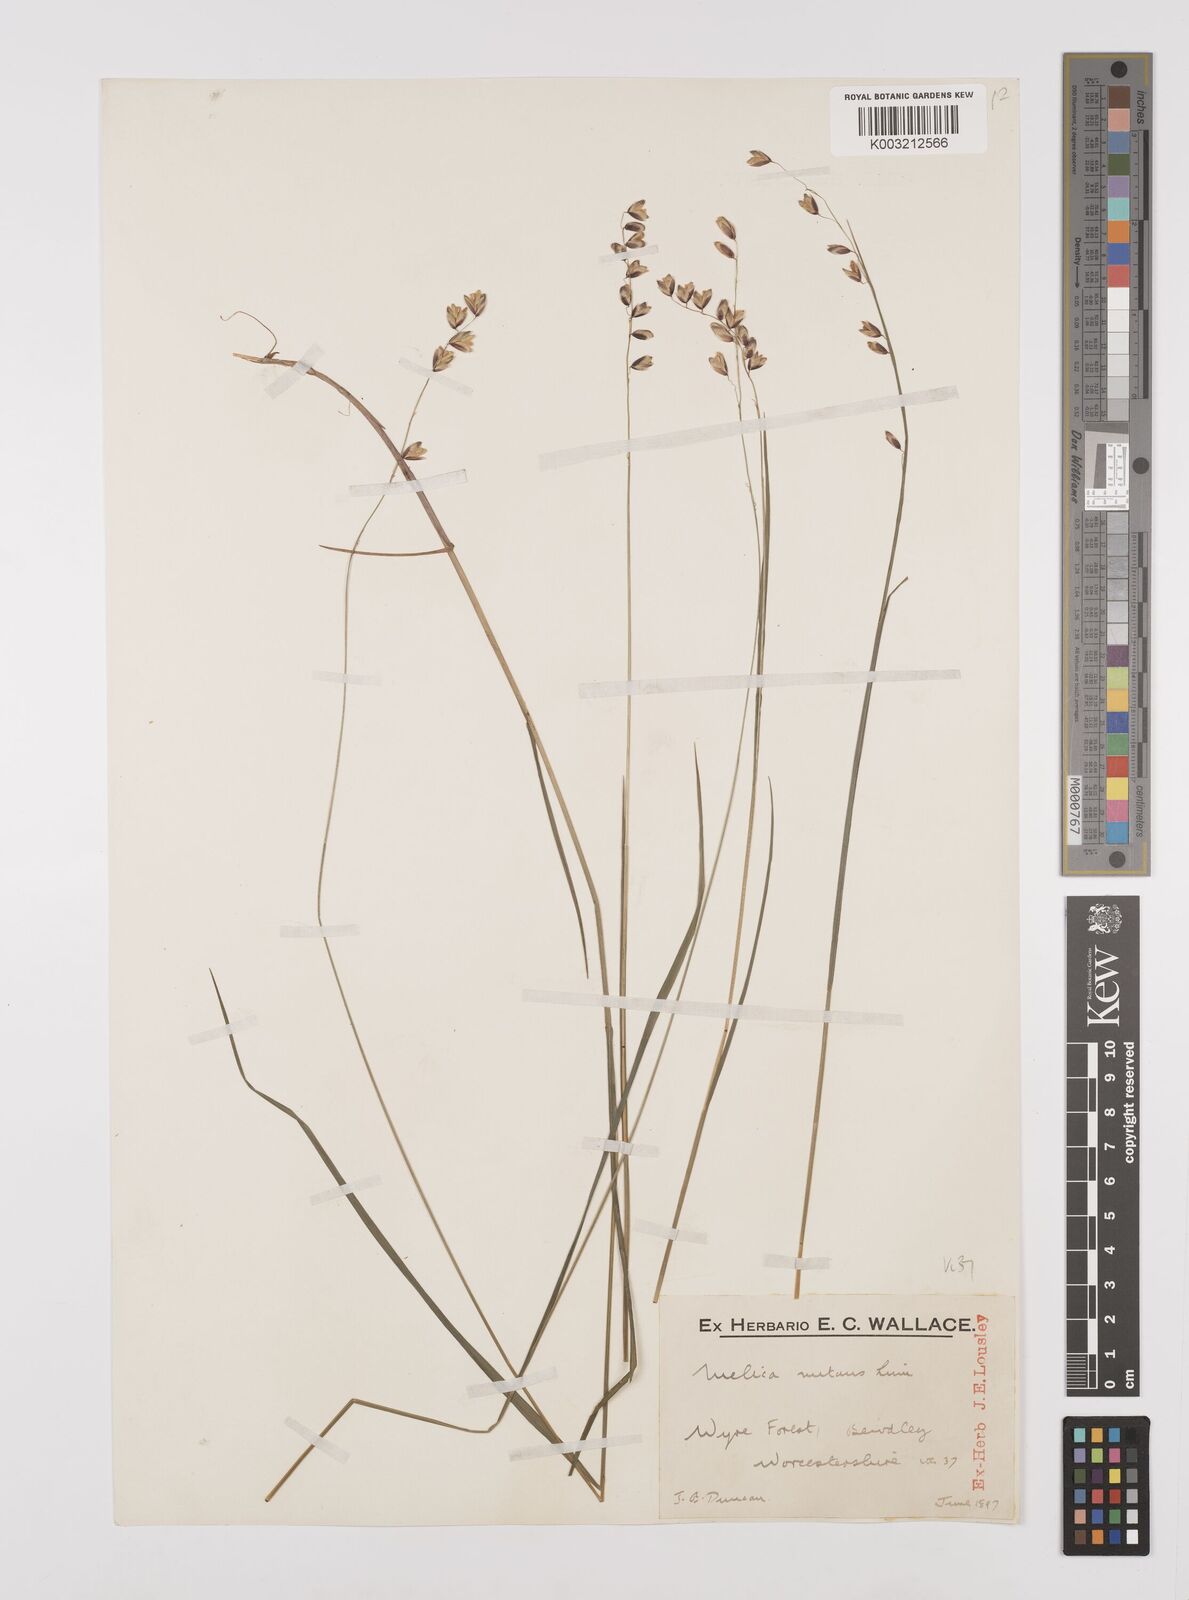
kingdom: Plantae
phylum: Tracheophyta
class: Liliopsida
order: Poales
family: Poaceae
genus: Melica
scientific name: Melica
